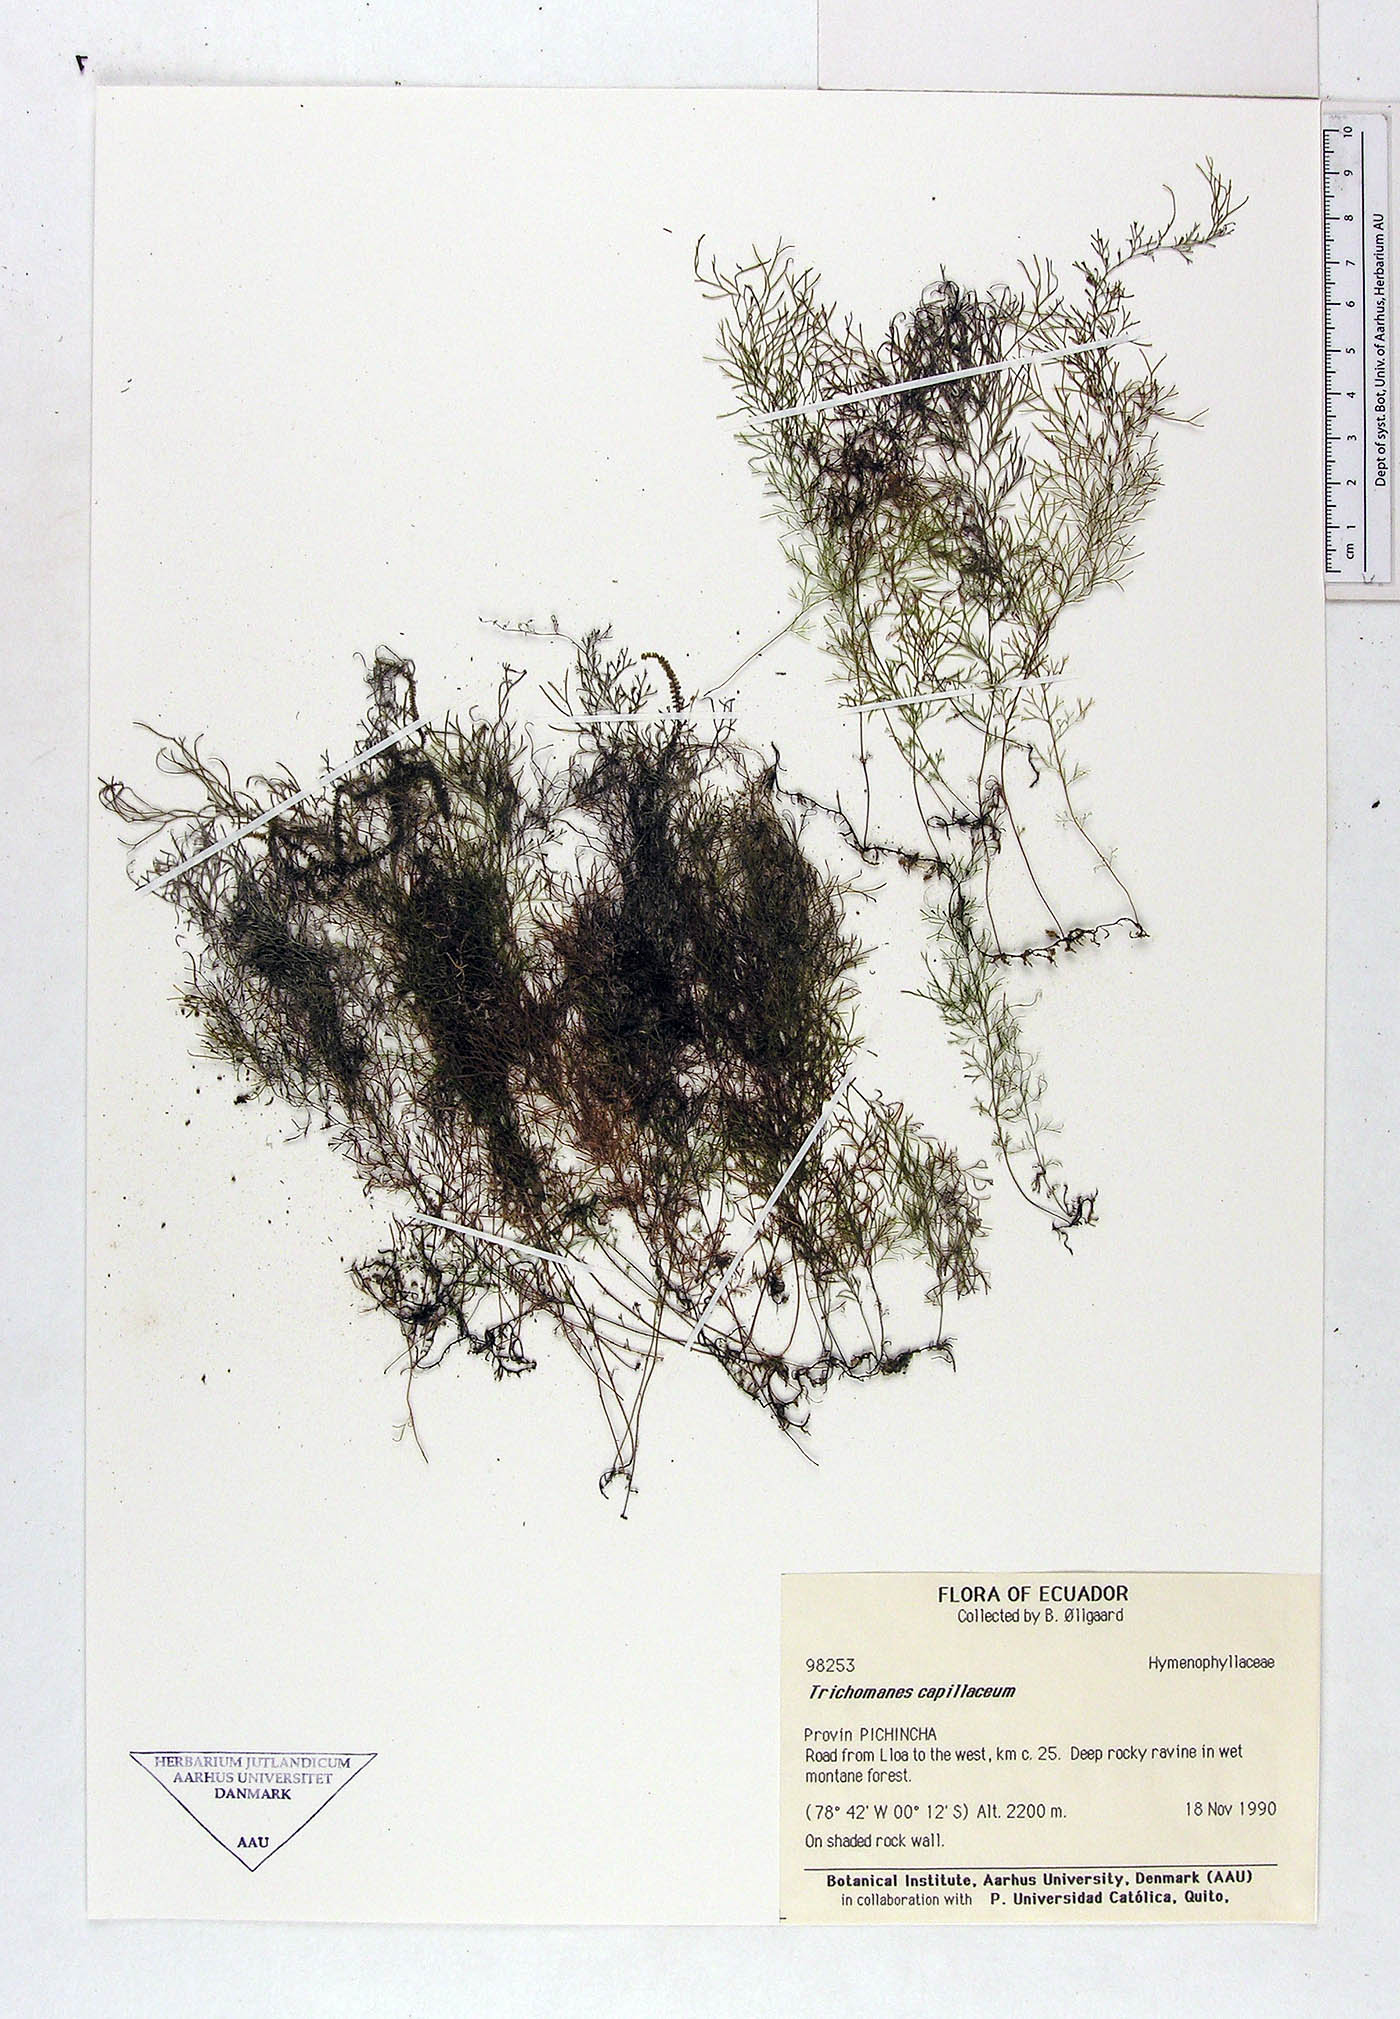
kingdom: Plantae
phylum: Tracheophyta
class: Polypodiopsida
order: Hymenophyllales
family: Hymenophyllaceae
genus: Polyphlebium
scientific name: Polyphlebium capillaceum
